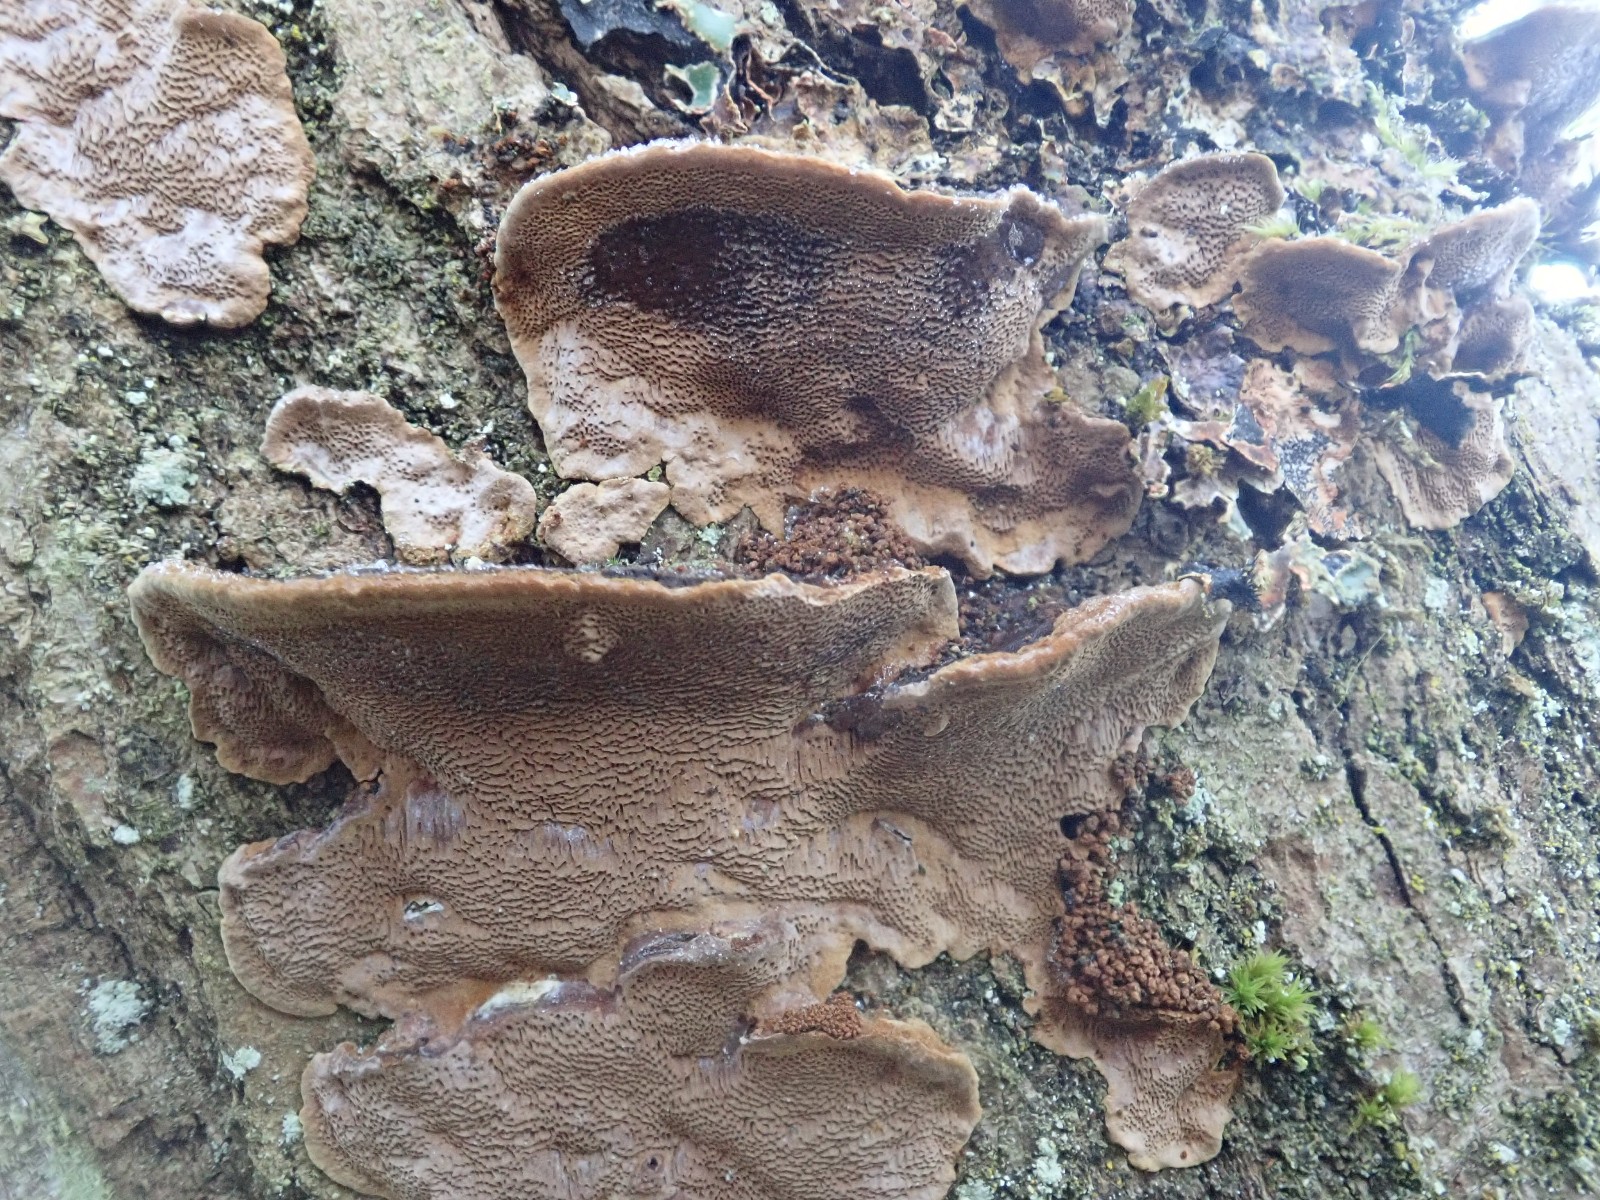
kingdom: Fungi
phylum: Basidiomycota
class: Agaricomycetes
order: Hymenochaetales
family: Hymenochaetaceae
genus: Phellinopsis
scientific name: Phellinopsis conchata
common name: pile-ildporesvamp
